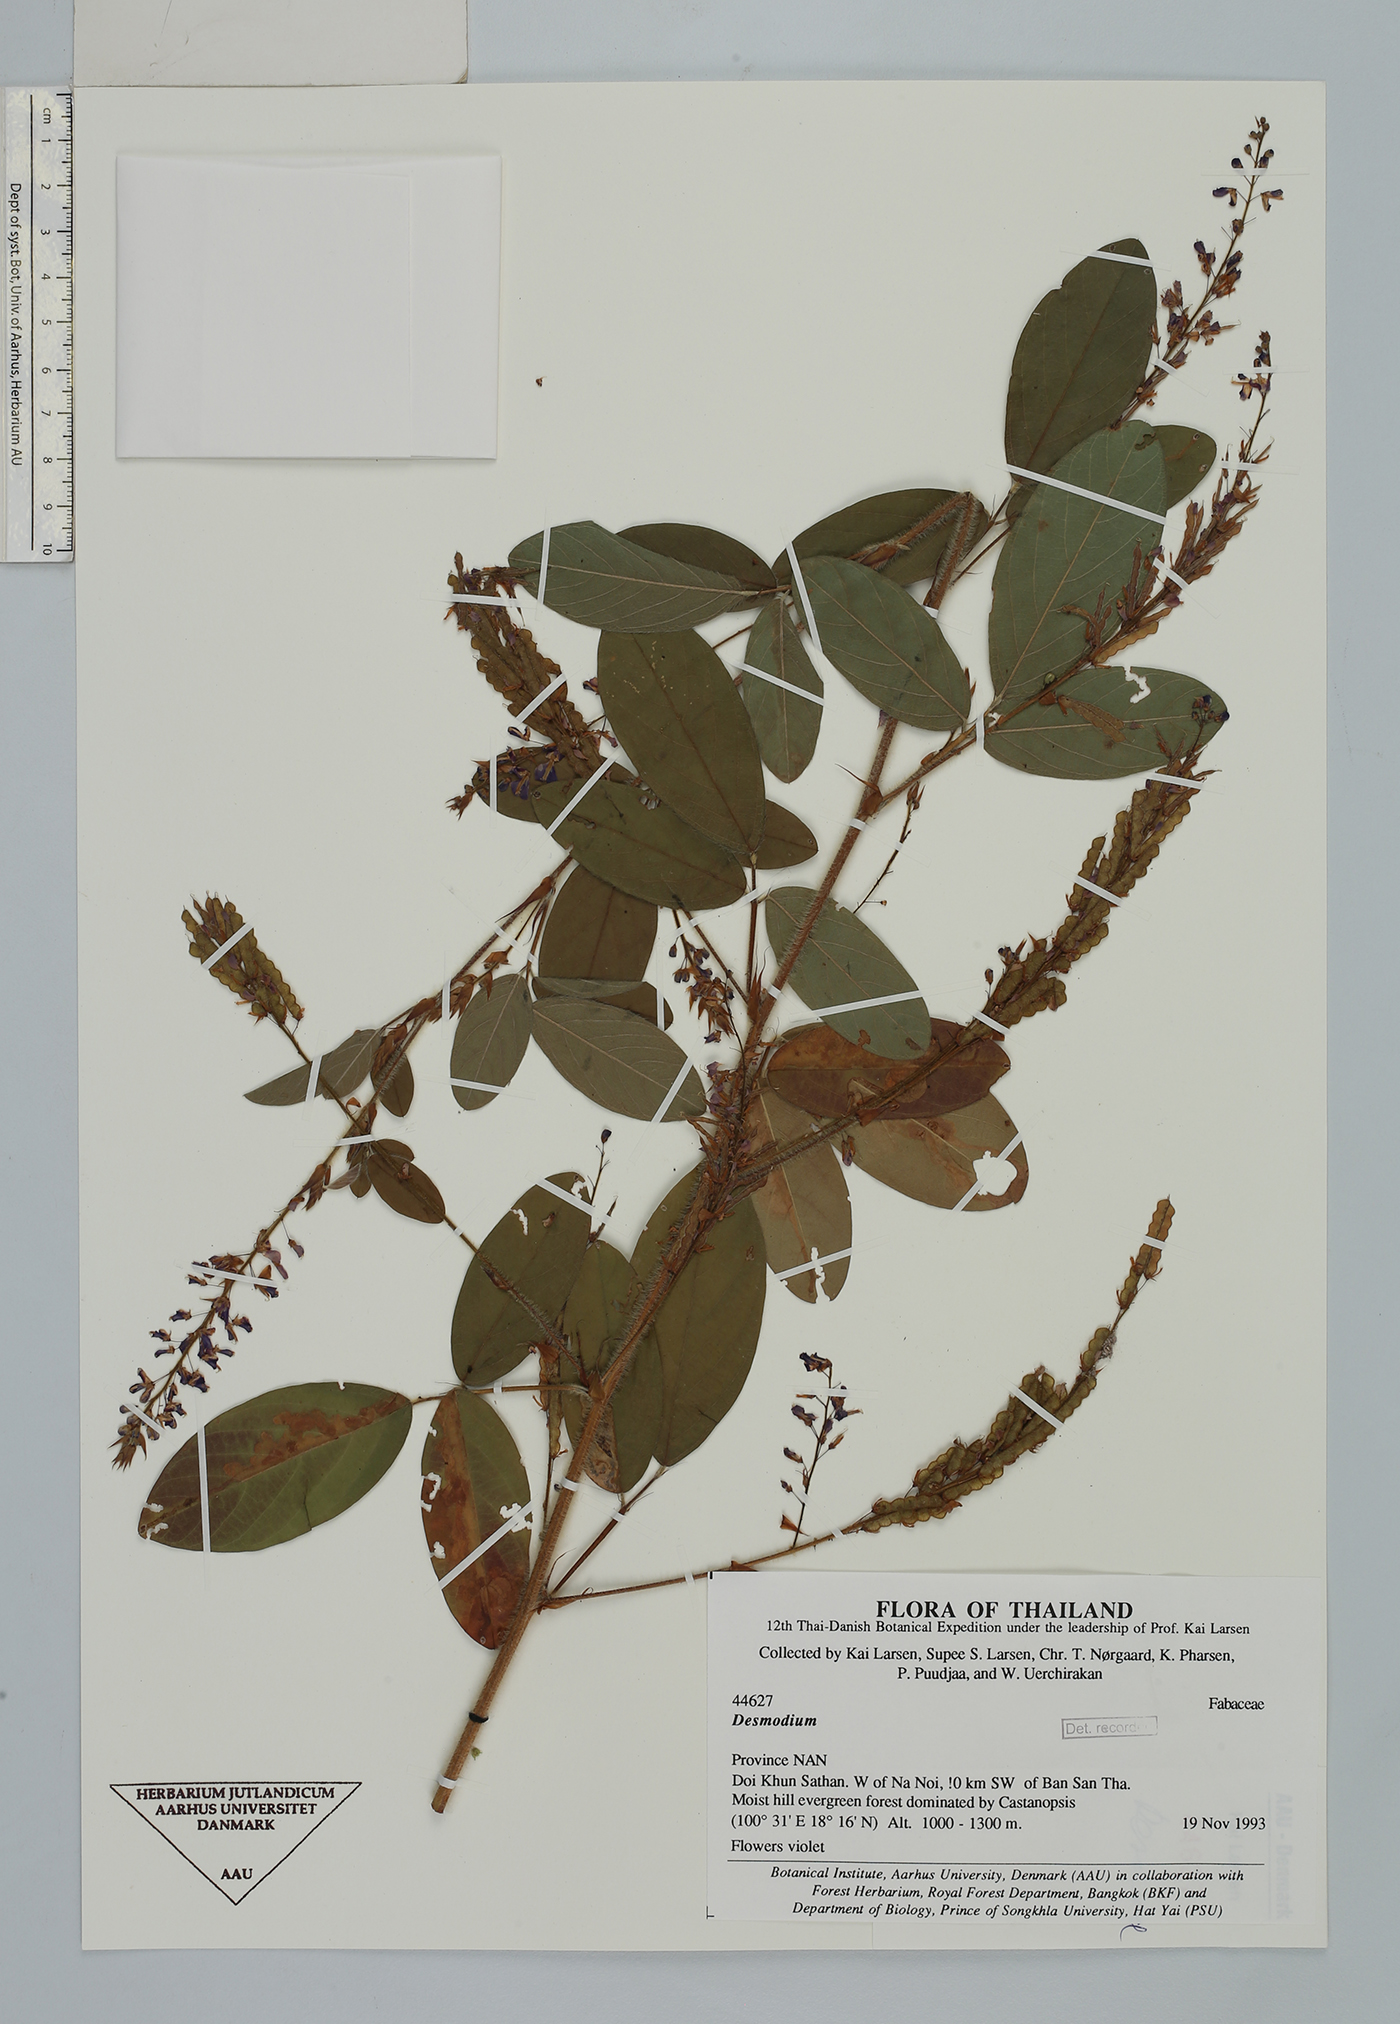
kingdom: Plantae
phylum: Tracheophyta
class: Magnoliopsida
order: Fabales
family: Fabaceae
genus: Grona
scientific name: Grona heterocarpos
